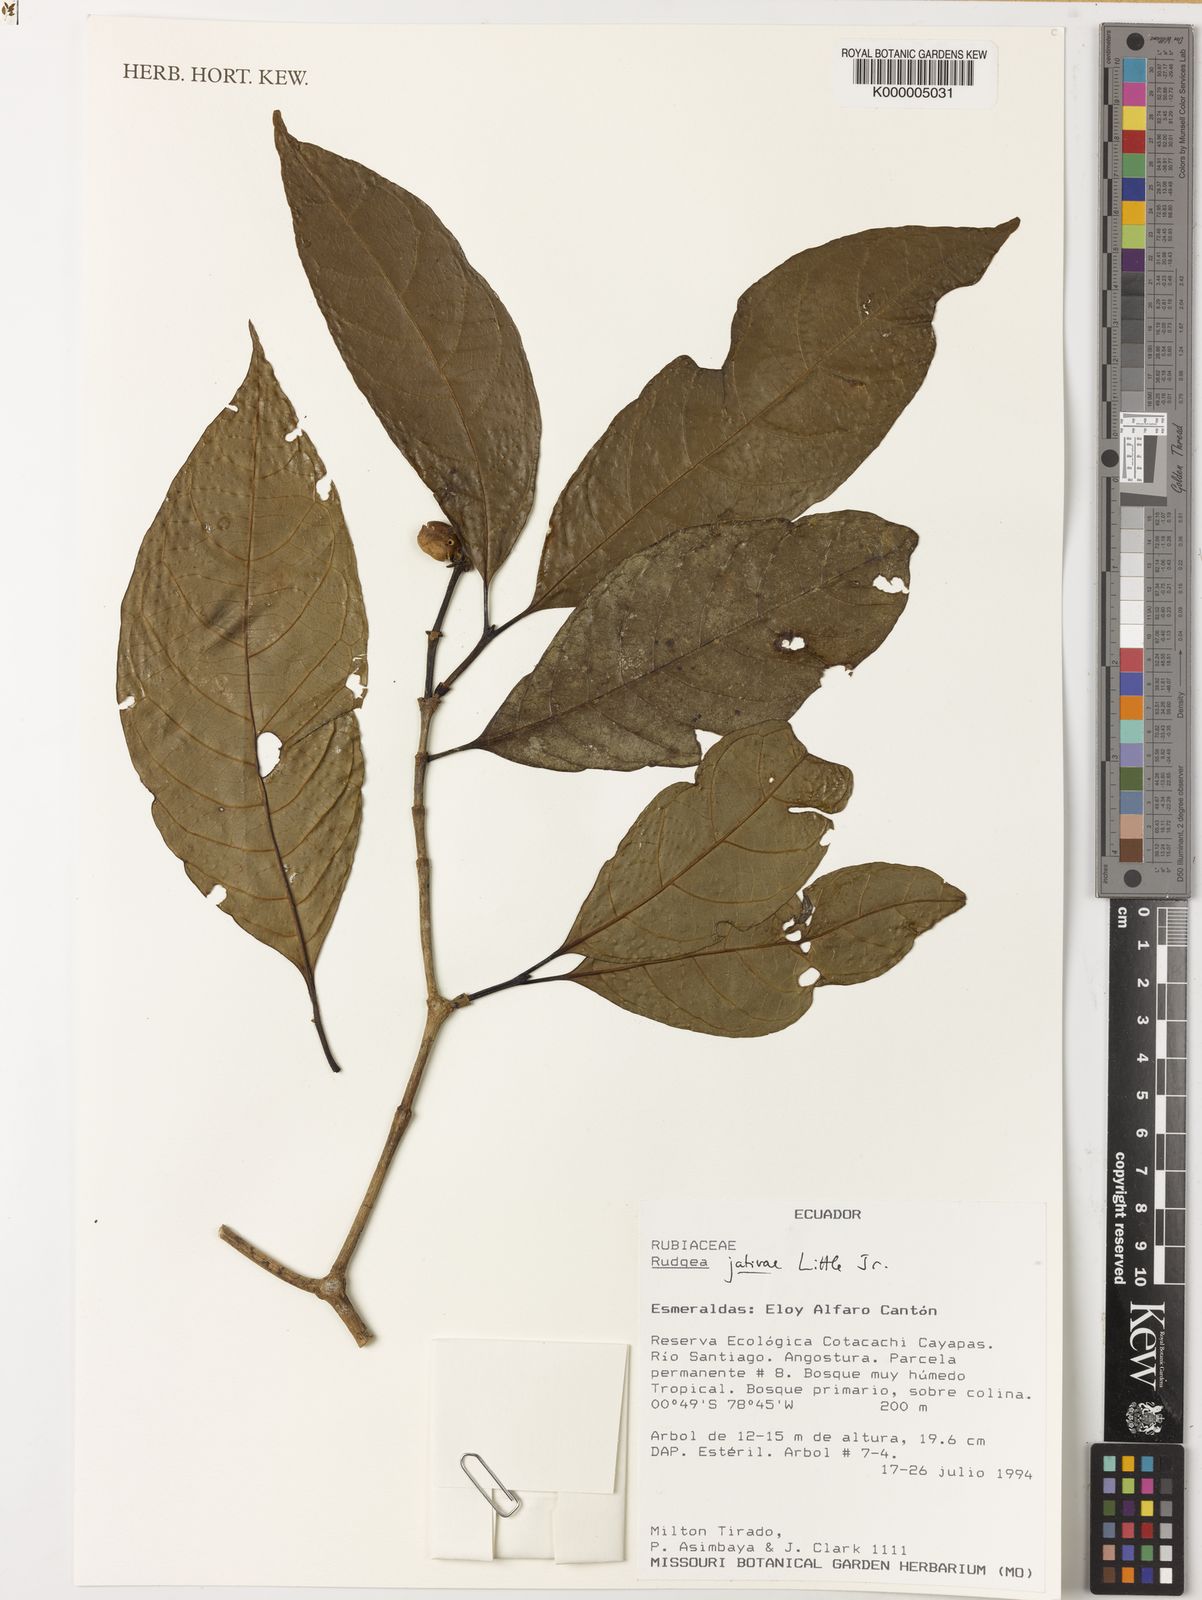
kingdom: Plantae
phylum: Tracheophyta
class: Magnoliopsida
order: Gentianales
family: Rubiaceae
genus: Rudgea
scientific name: Rudgea colombiana
